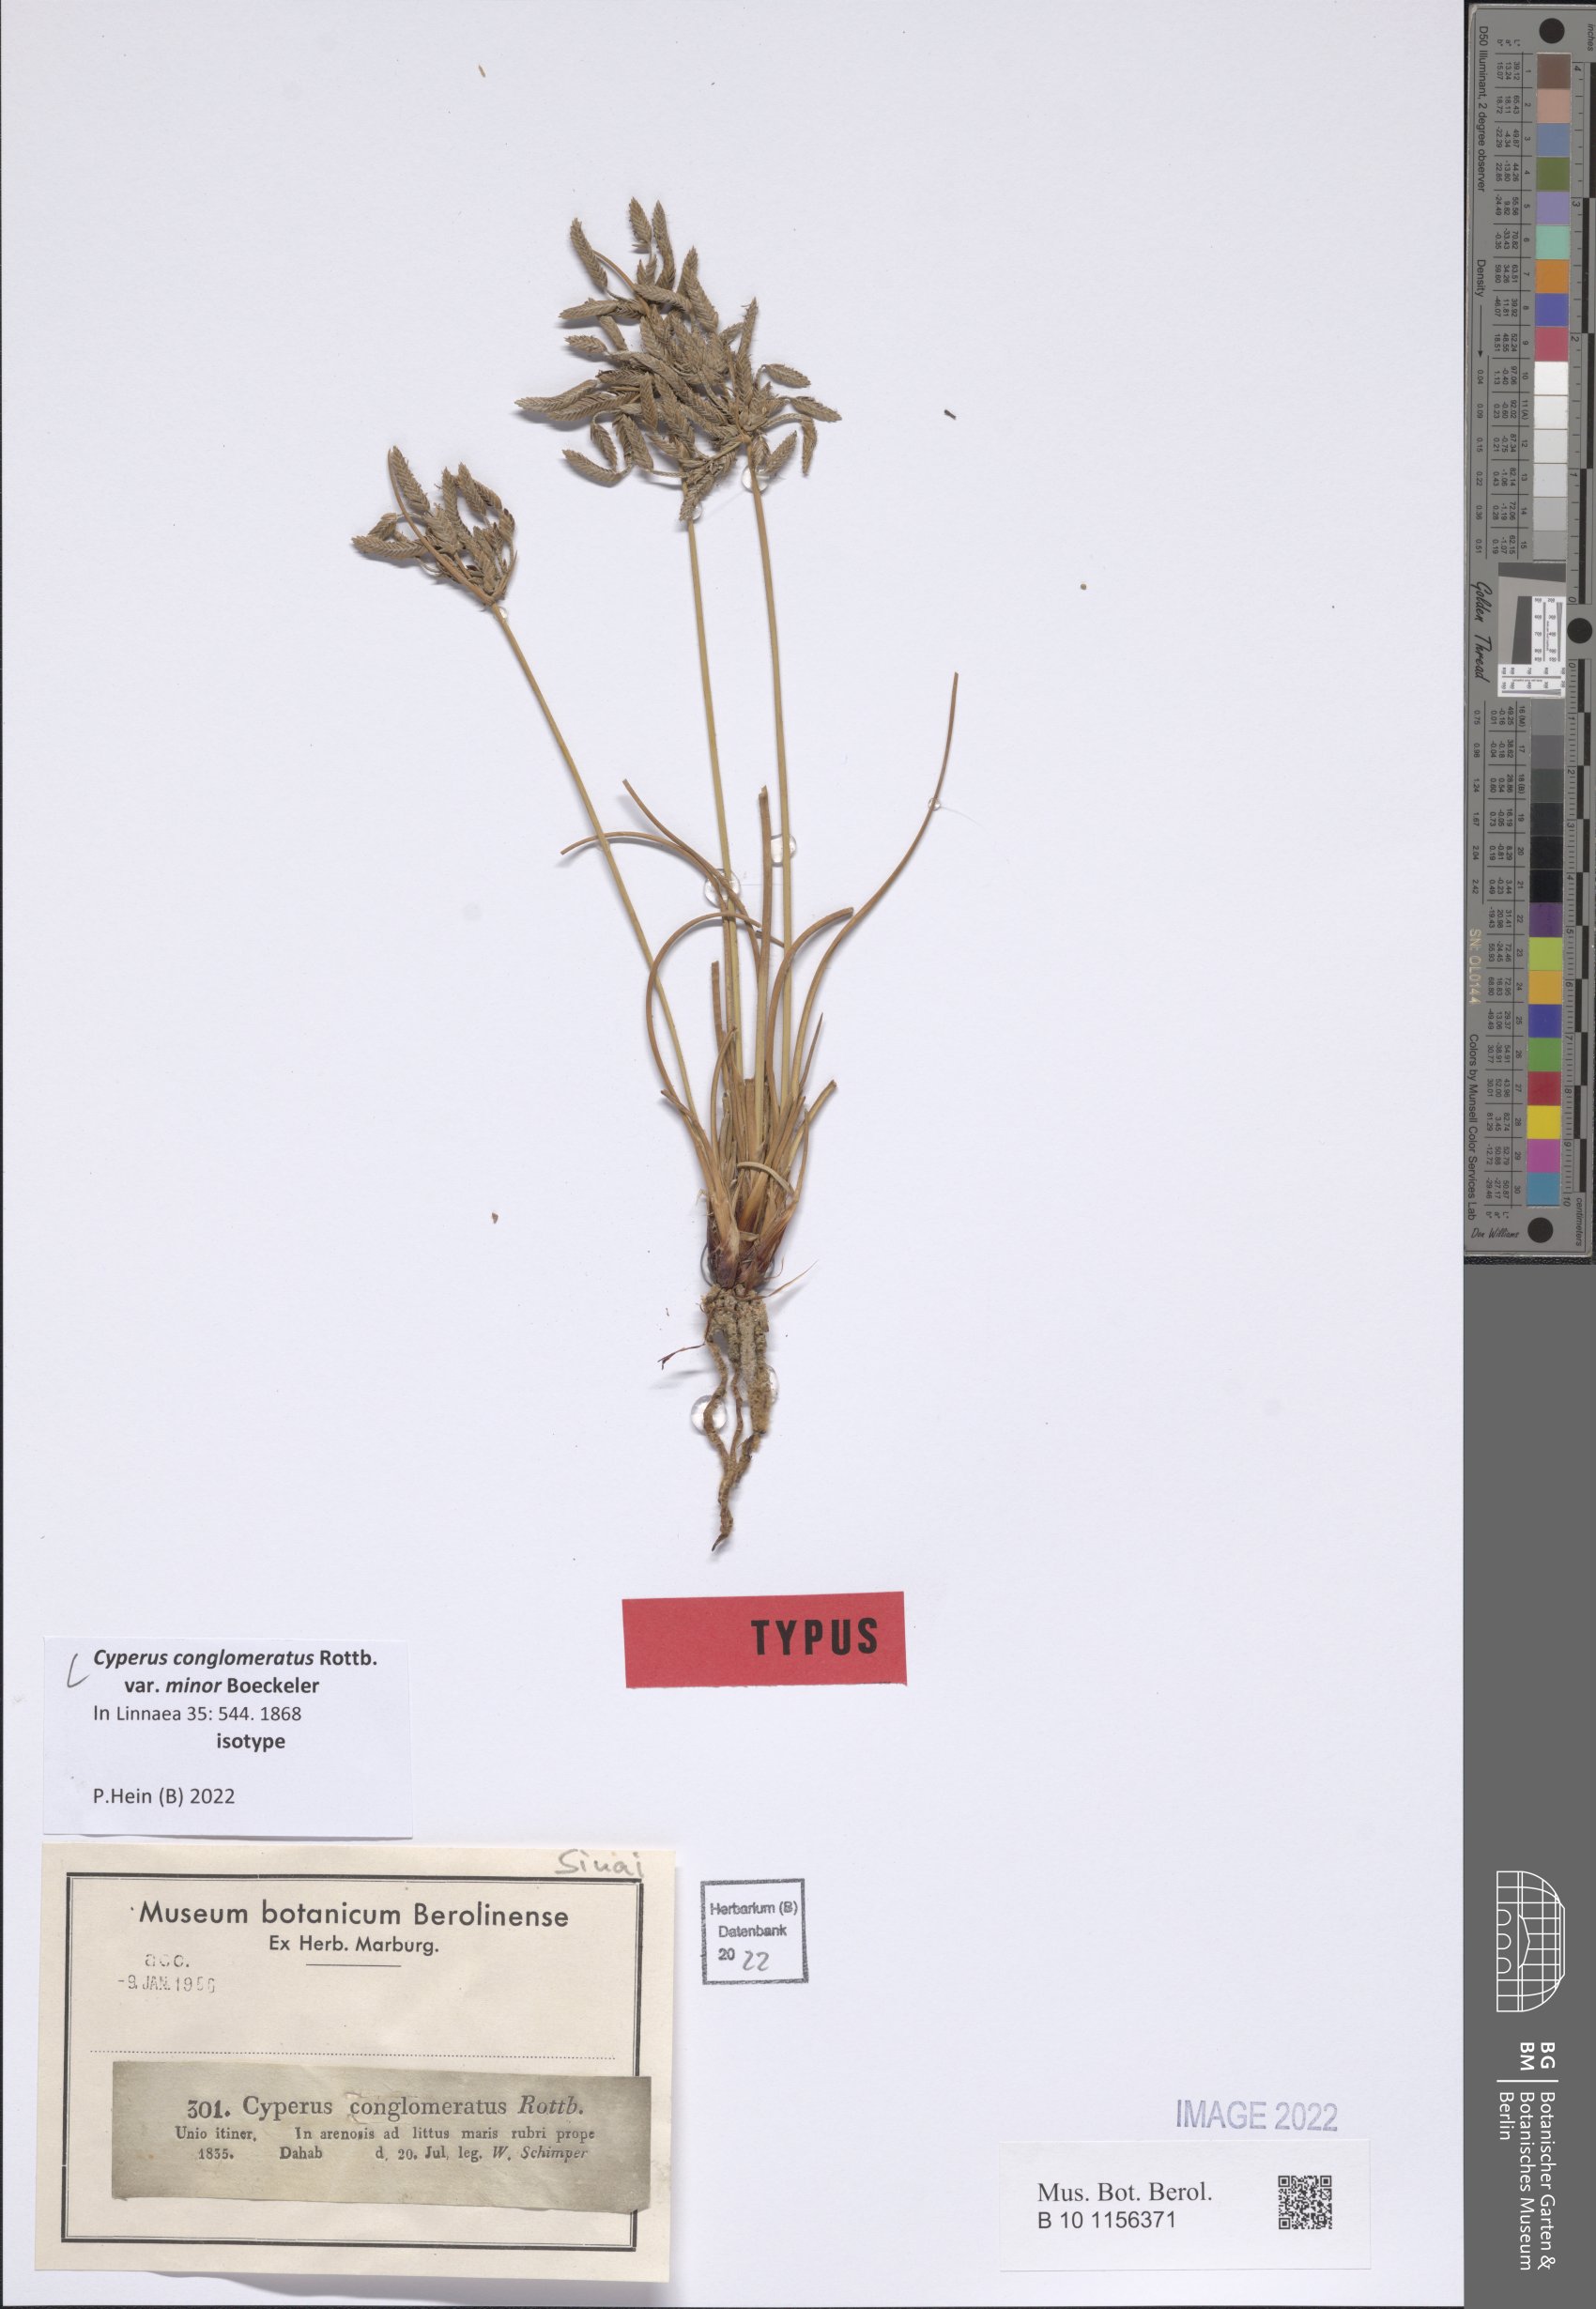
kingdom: Plantae
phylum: Tracheophyta
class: Liliopsida
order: Poales
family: Cyperaceae
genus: Cyperus
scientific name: Cyperus conglomeratus
